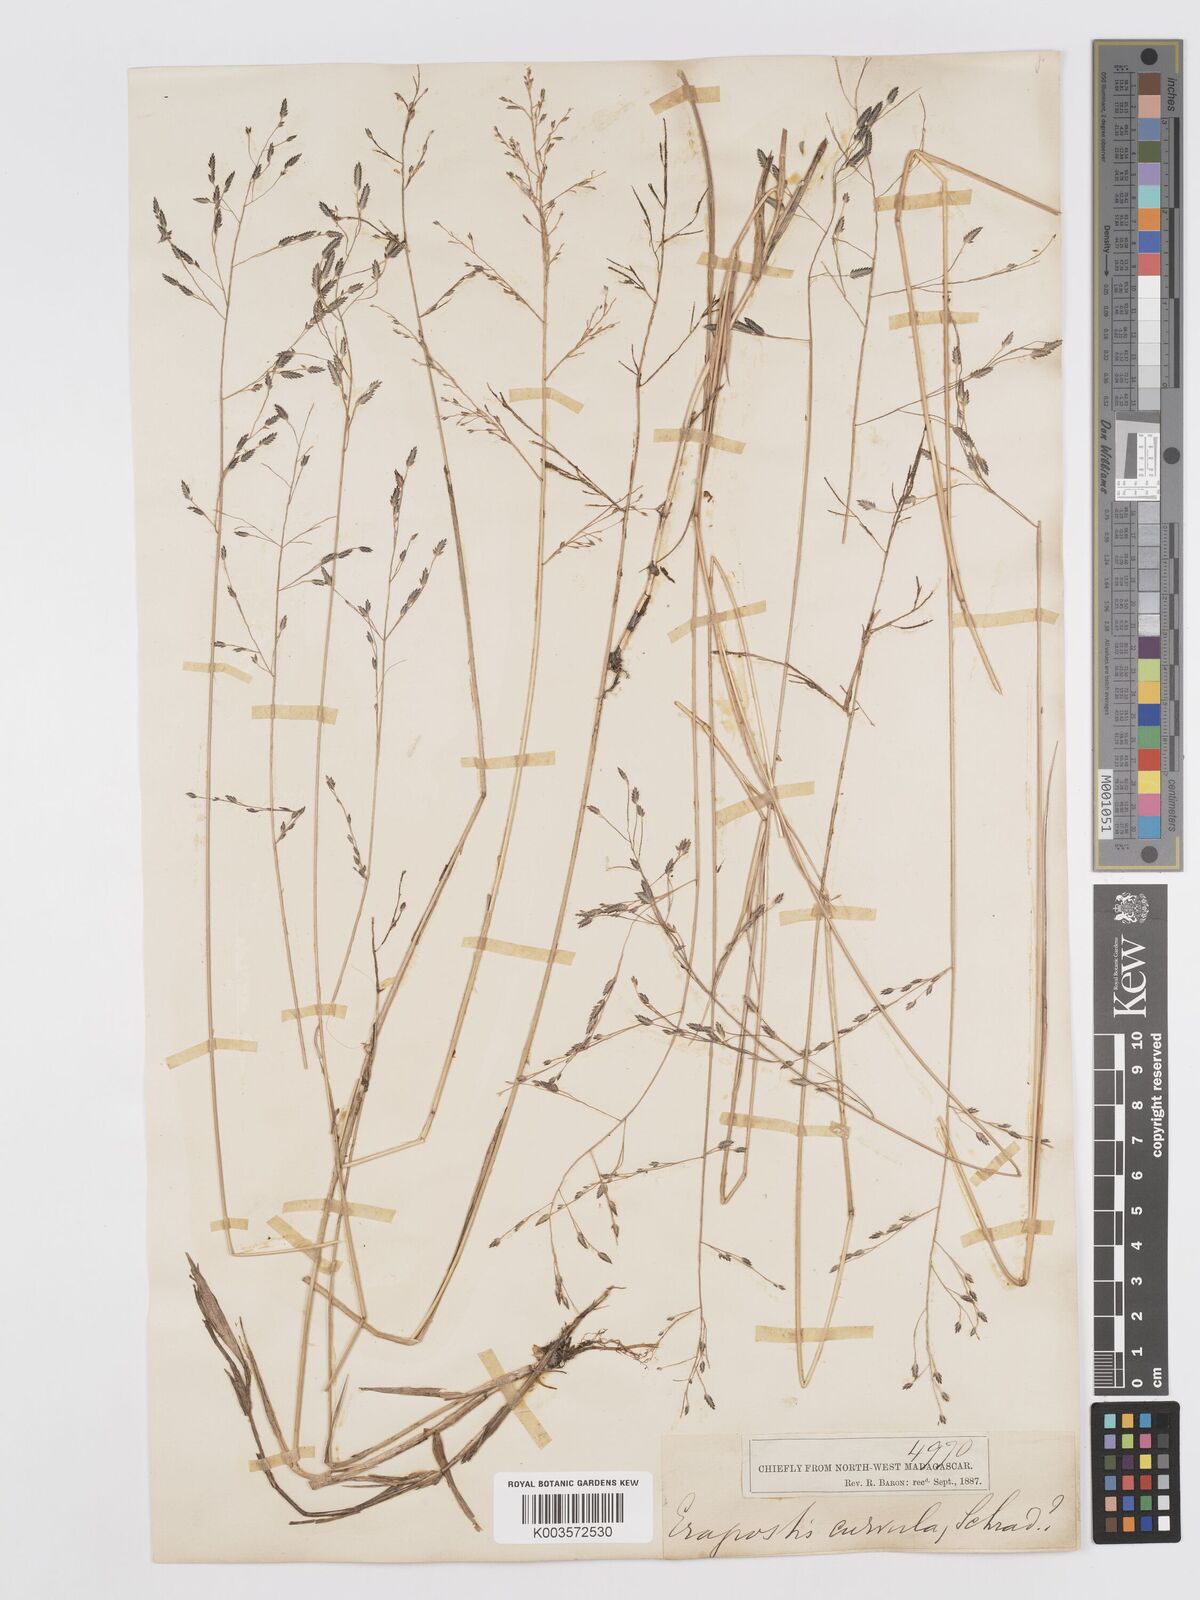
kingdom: Plantae
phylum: Tracheophyta
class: Liliopsida
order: Poales
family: Poaceae
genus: Eragrostis
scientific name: Eragrostis hildebrandtii
